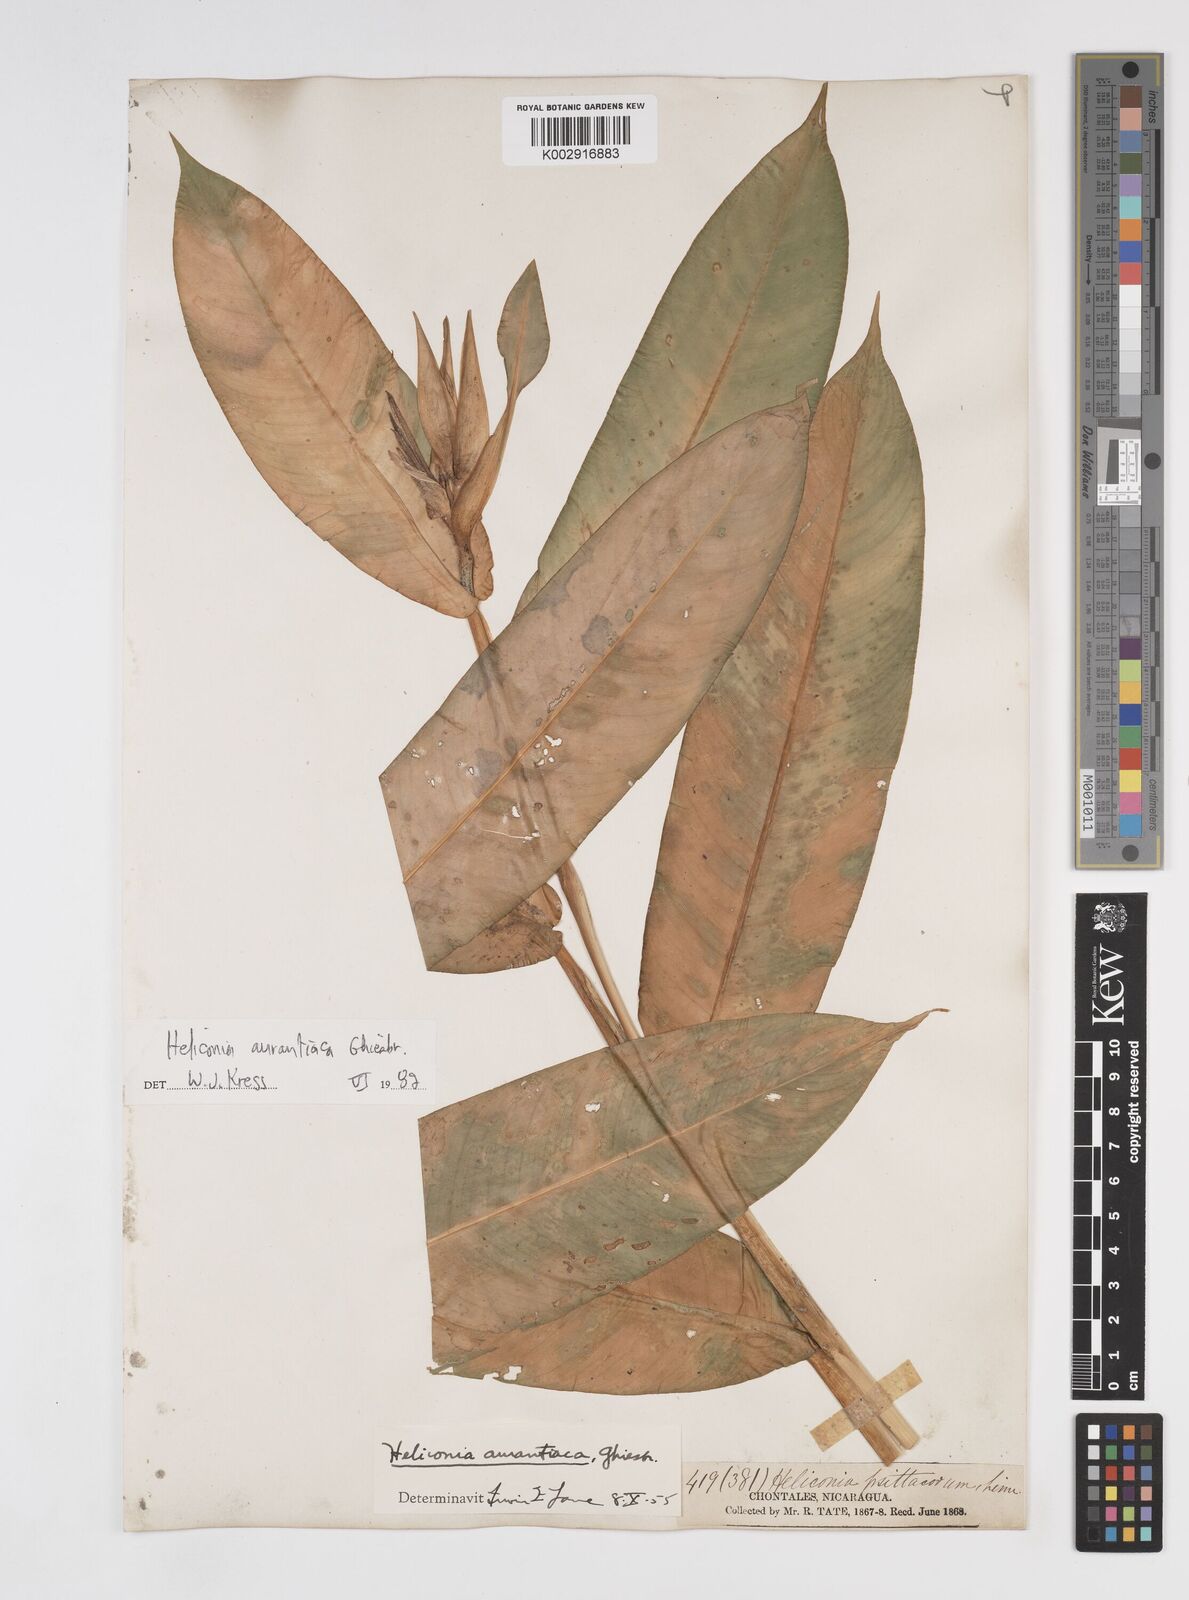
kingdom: Plantae
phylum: Tracheophyta
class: Liliopsida
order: Zingiberales
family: Heliconiaceae
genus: Heliconia
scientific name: Heliconia aurantiaca
